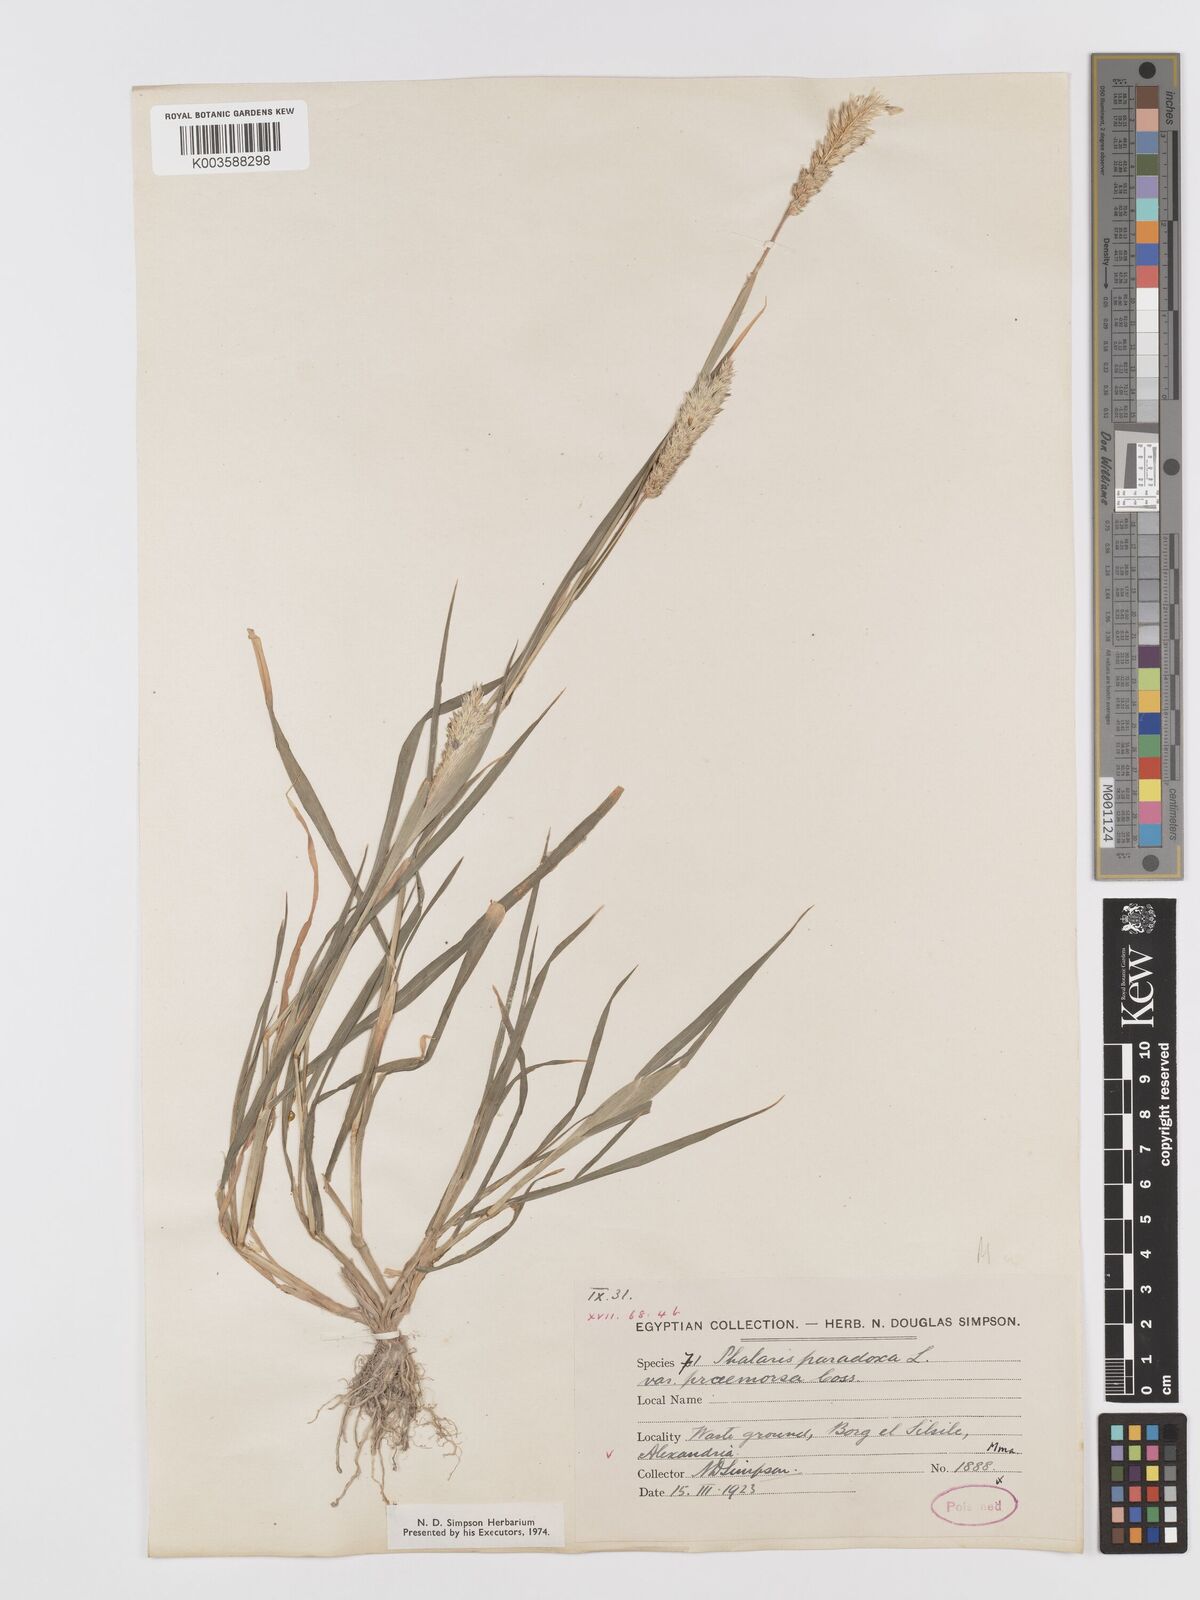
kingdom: Plantae
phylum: Tracheophyta
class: Liliopsida
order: Poales
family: Poaceae
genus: Phalaris
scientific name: Phalaris paradoxa
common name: Awned canary-grass
